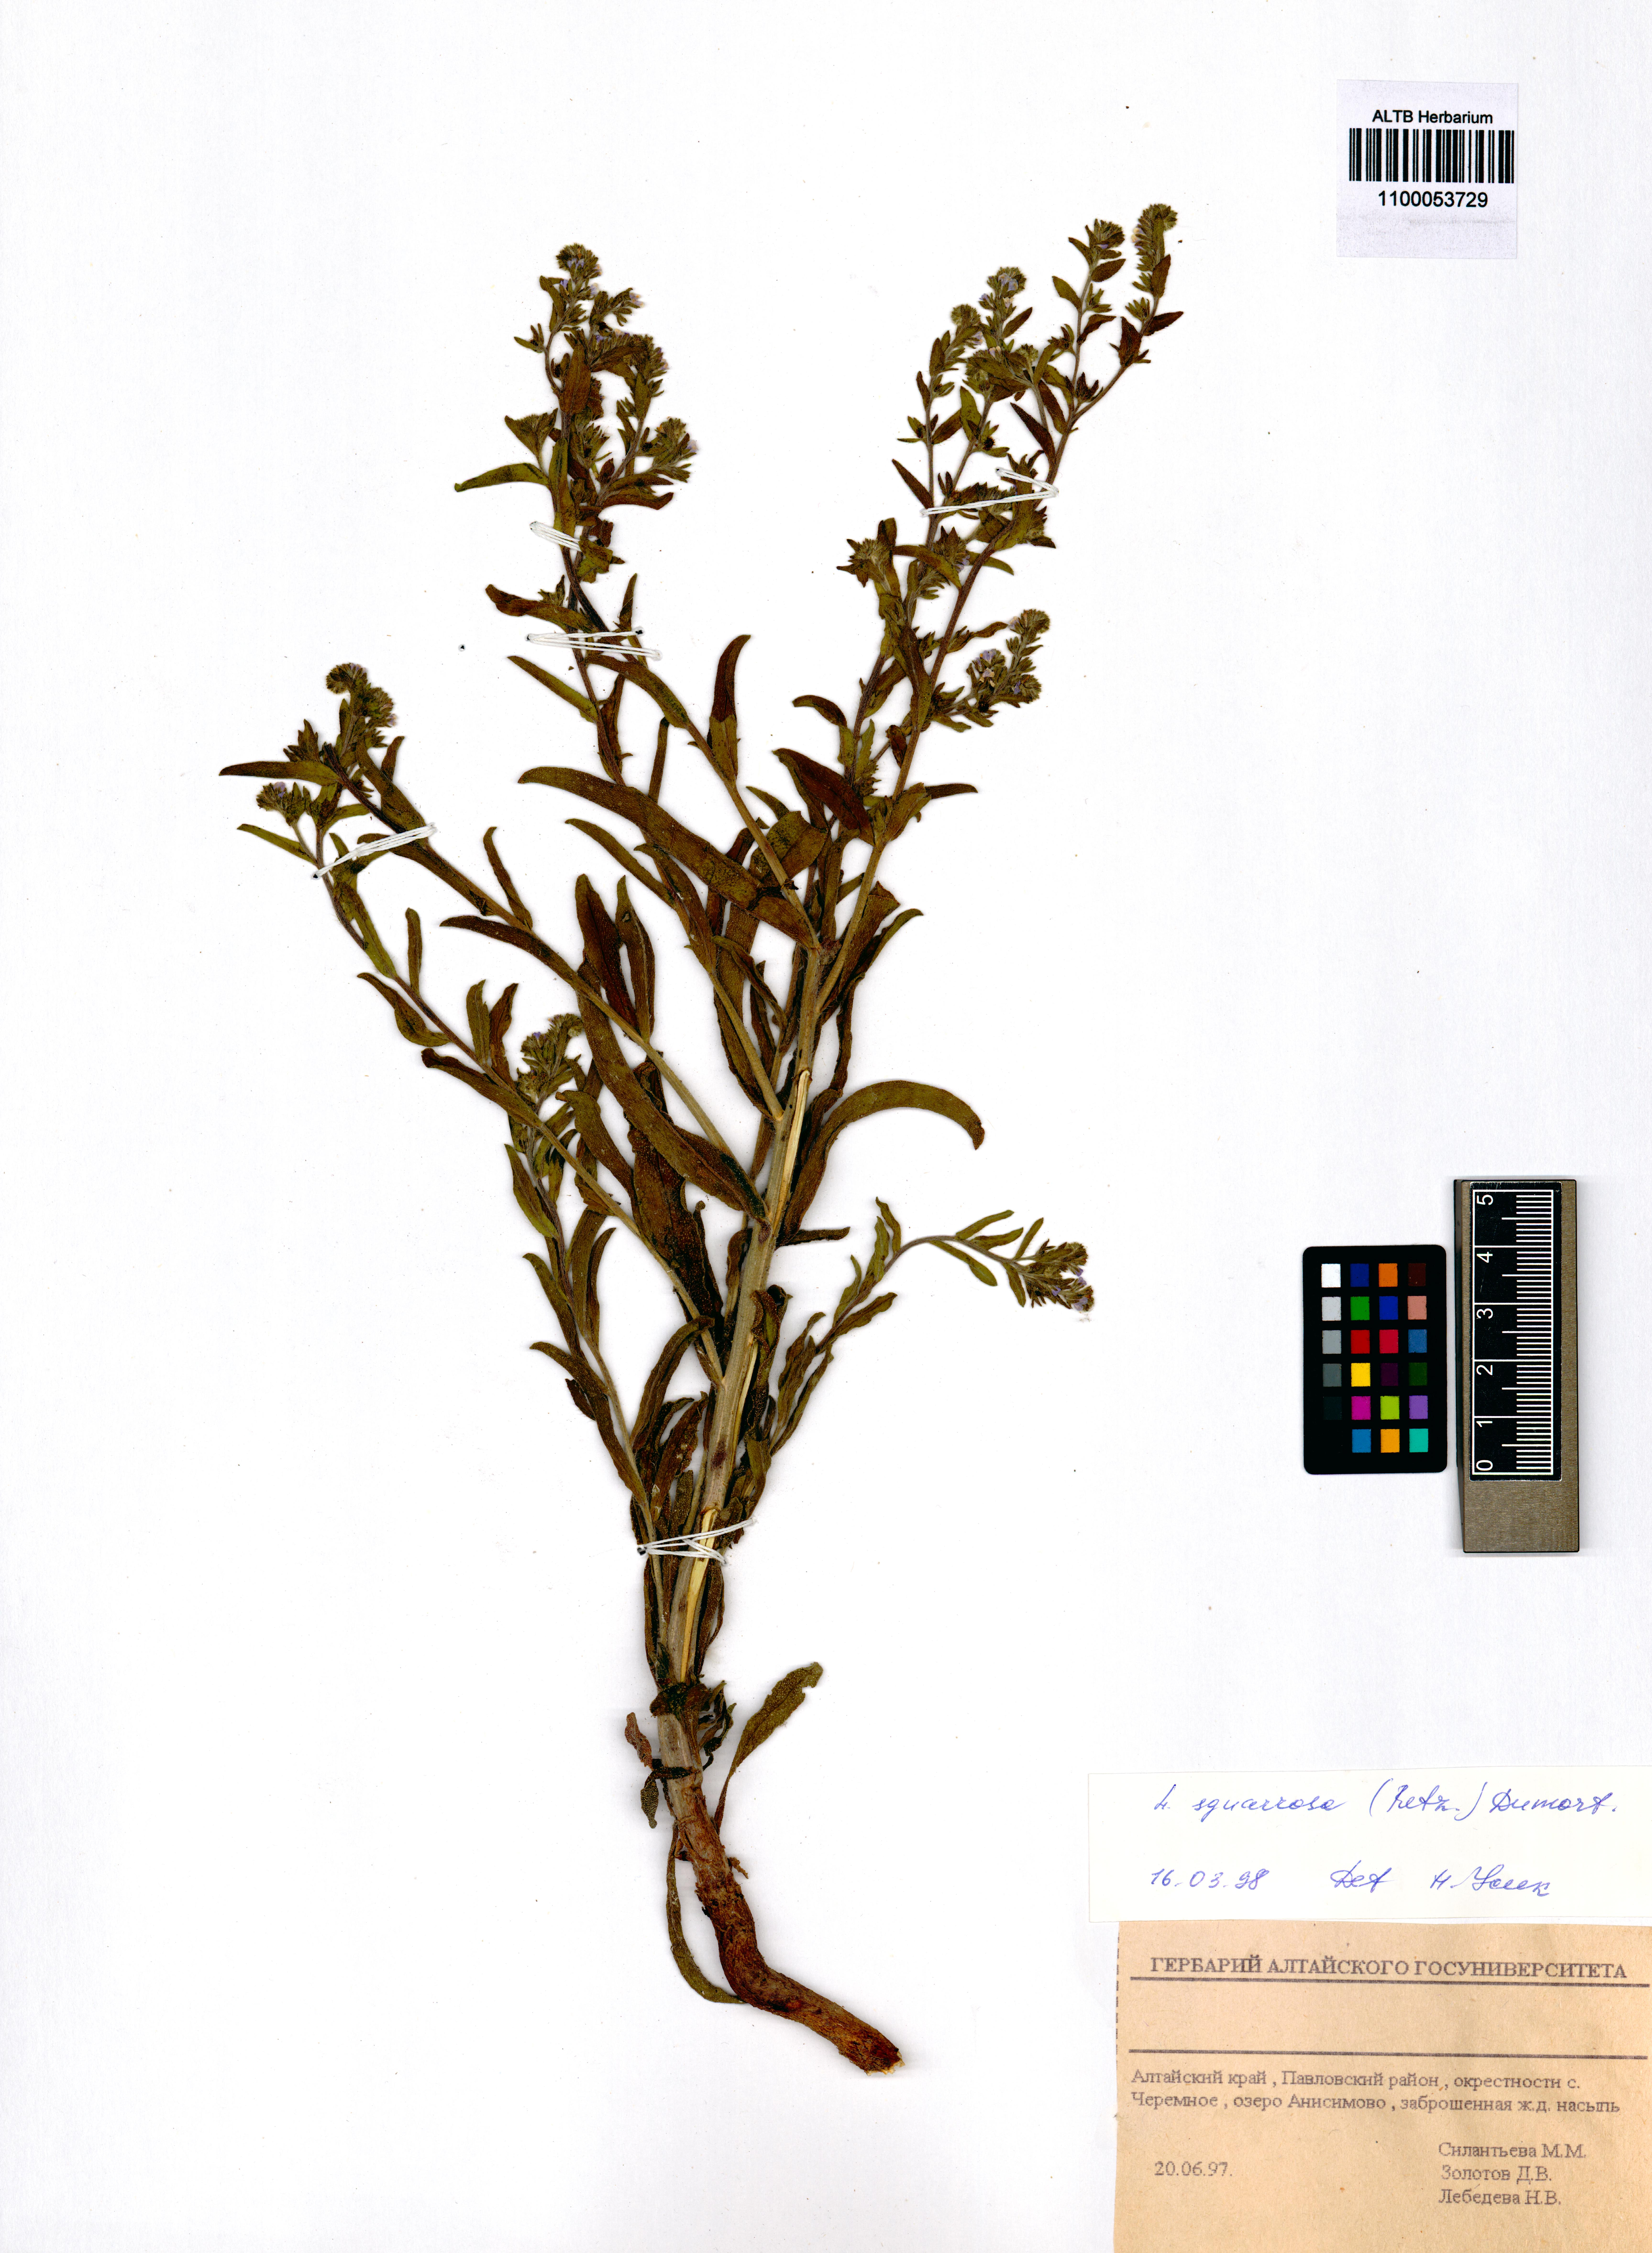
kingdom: Plantae
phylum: Tracheophyta
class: Magnoliopsida
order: Boraginales
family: Boraginaceae
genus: Lappula
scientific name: Lappula squarrosa
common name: European stickseed
